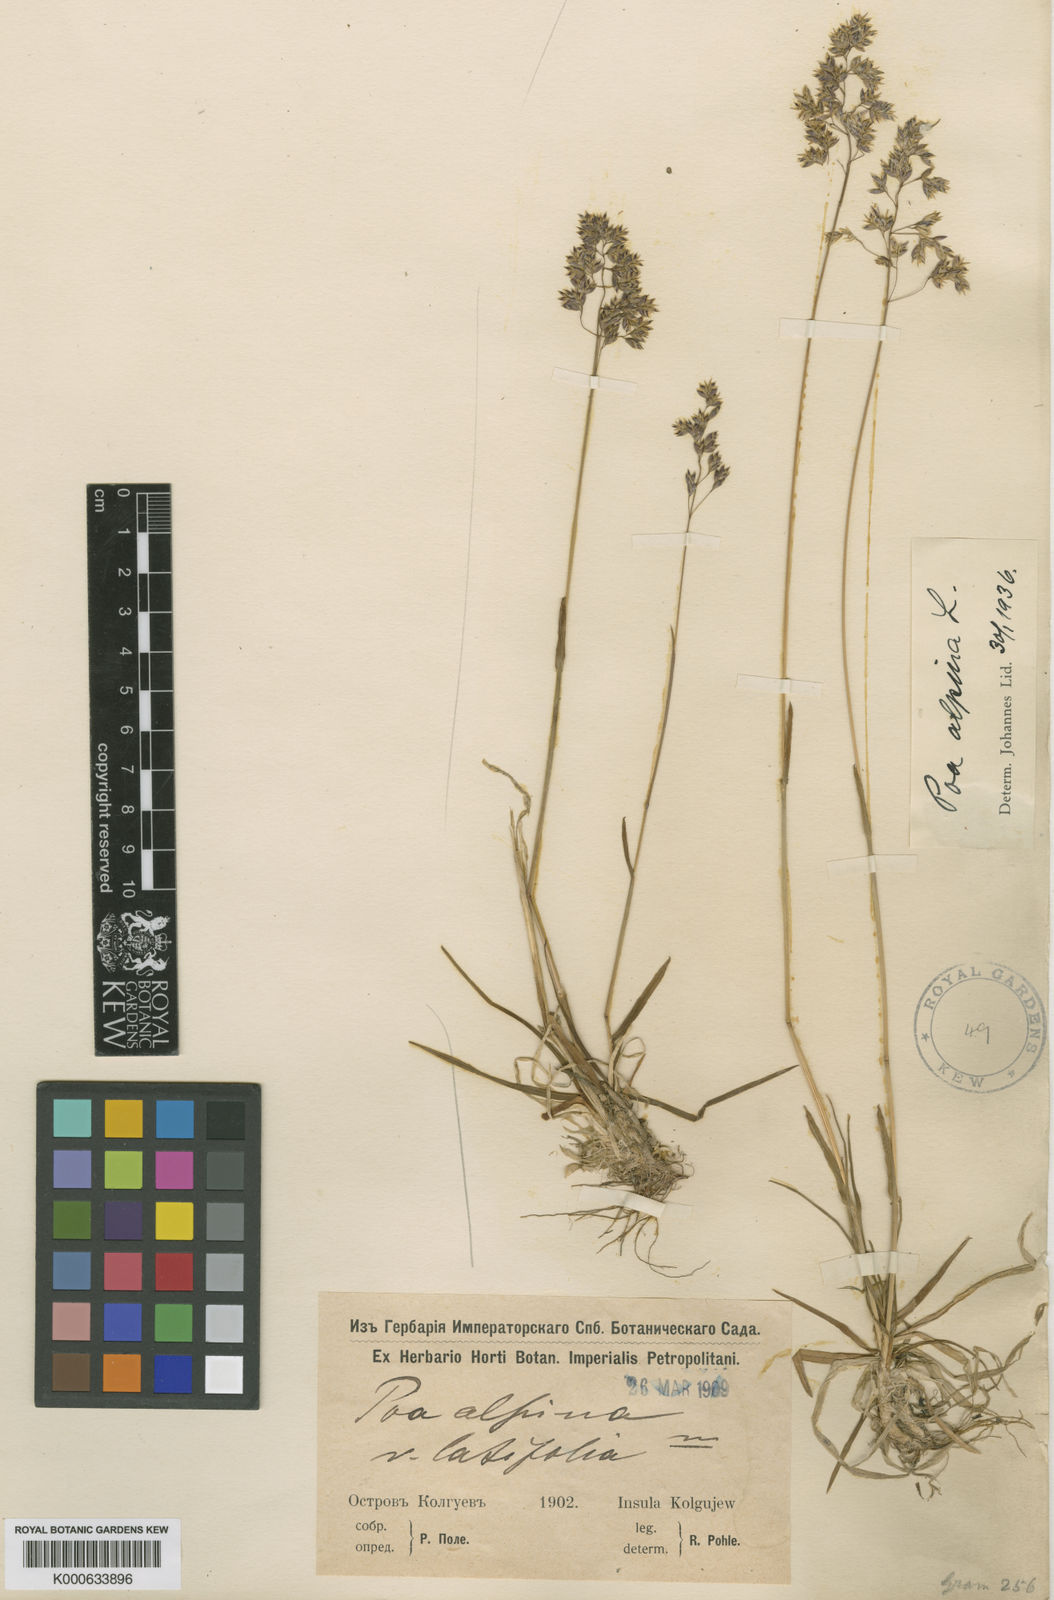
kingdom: Plantae
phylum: Tracheophyta
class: Liliopsida
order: Poales
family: Poaceae
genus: Poa
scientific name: Poa alpina
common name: Alpine bluegrass
